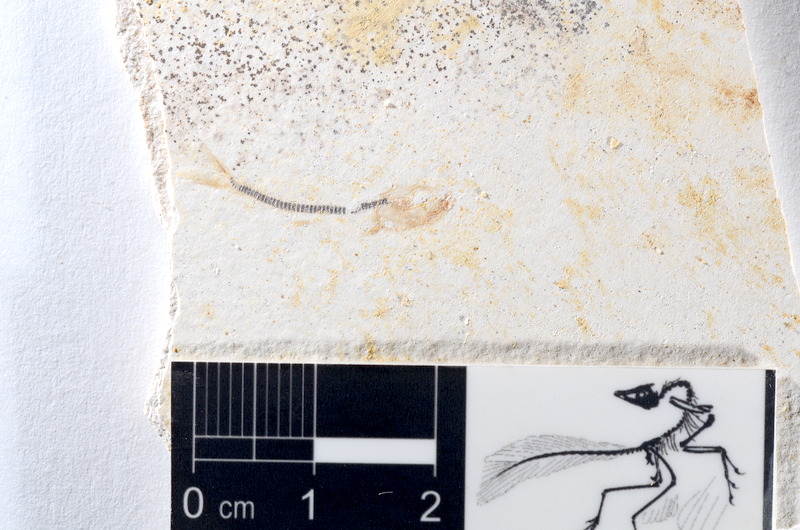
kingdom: Animalia
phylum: Chordata
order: Salmoniformes
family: Orthogonikleithridae
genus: Orthogonikleithrus
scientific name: Orthogonikleithrus hoelli
